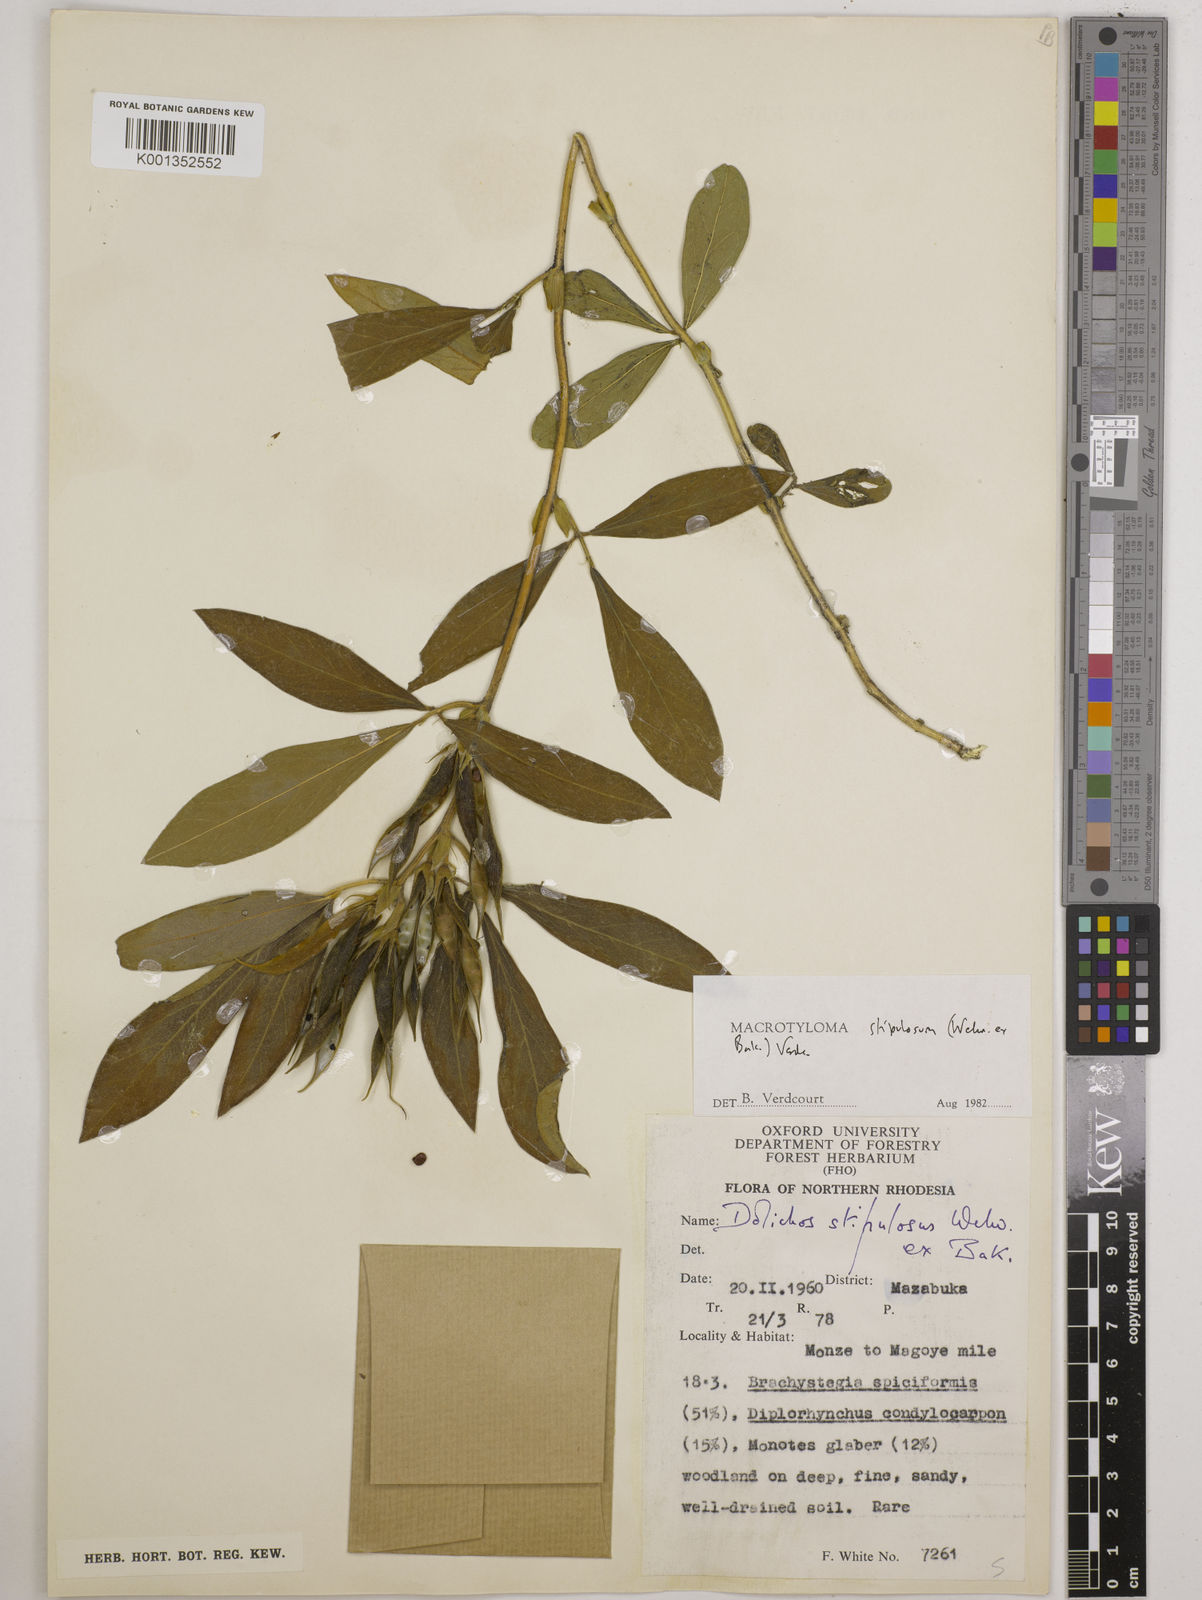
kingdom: Plantae
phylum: Tracheophyta
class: Magnoliopsida
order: Fabales
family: Fabaceae
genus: Macrotyloma
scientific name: Macrotyloma stipulosum
